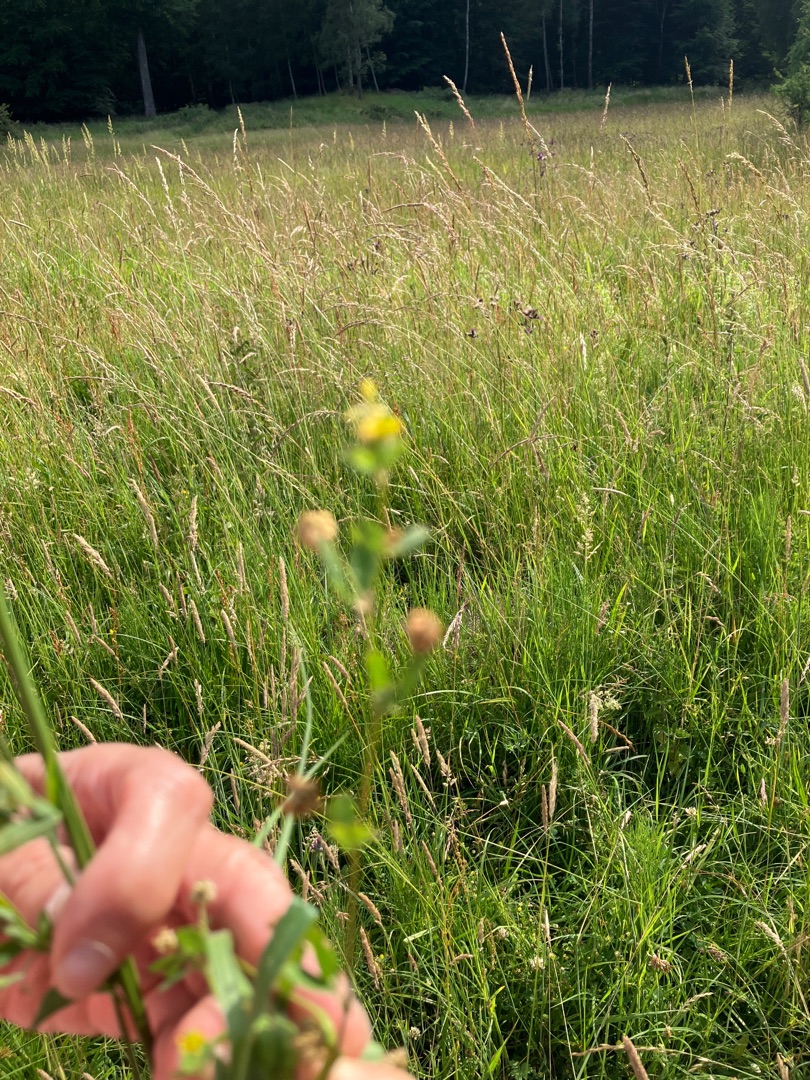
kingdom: Plantae
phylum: Tracheophyta
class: Magnoliopsida
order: Fabales
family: Fabaceae
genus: Trifolium
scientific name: Trifolium dubium
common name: Fin kløver
